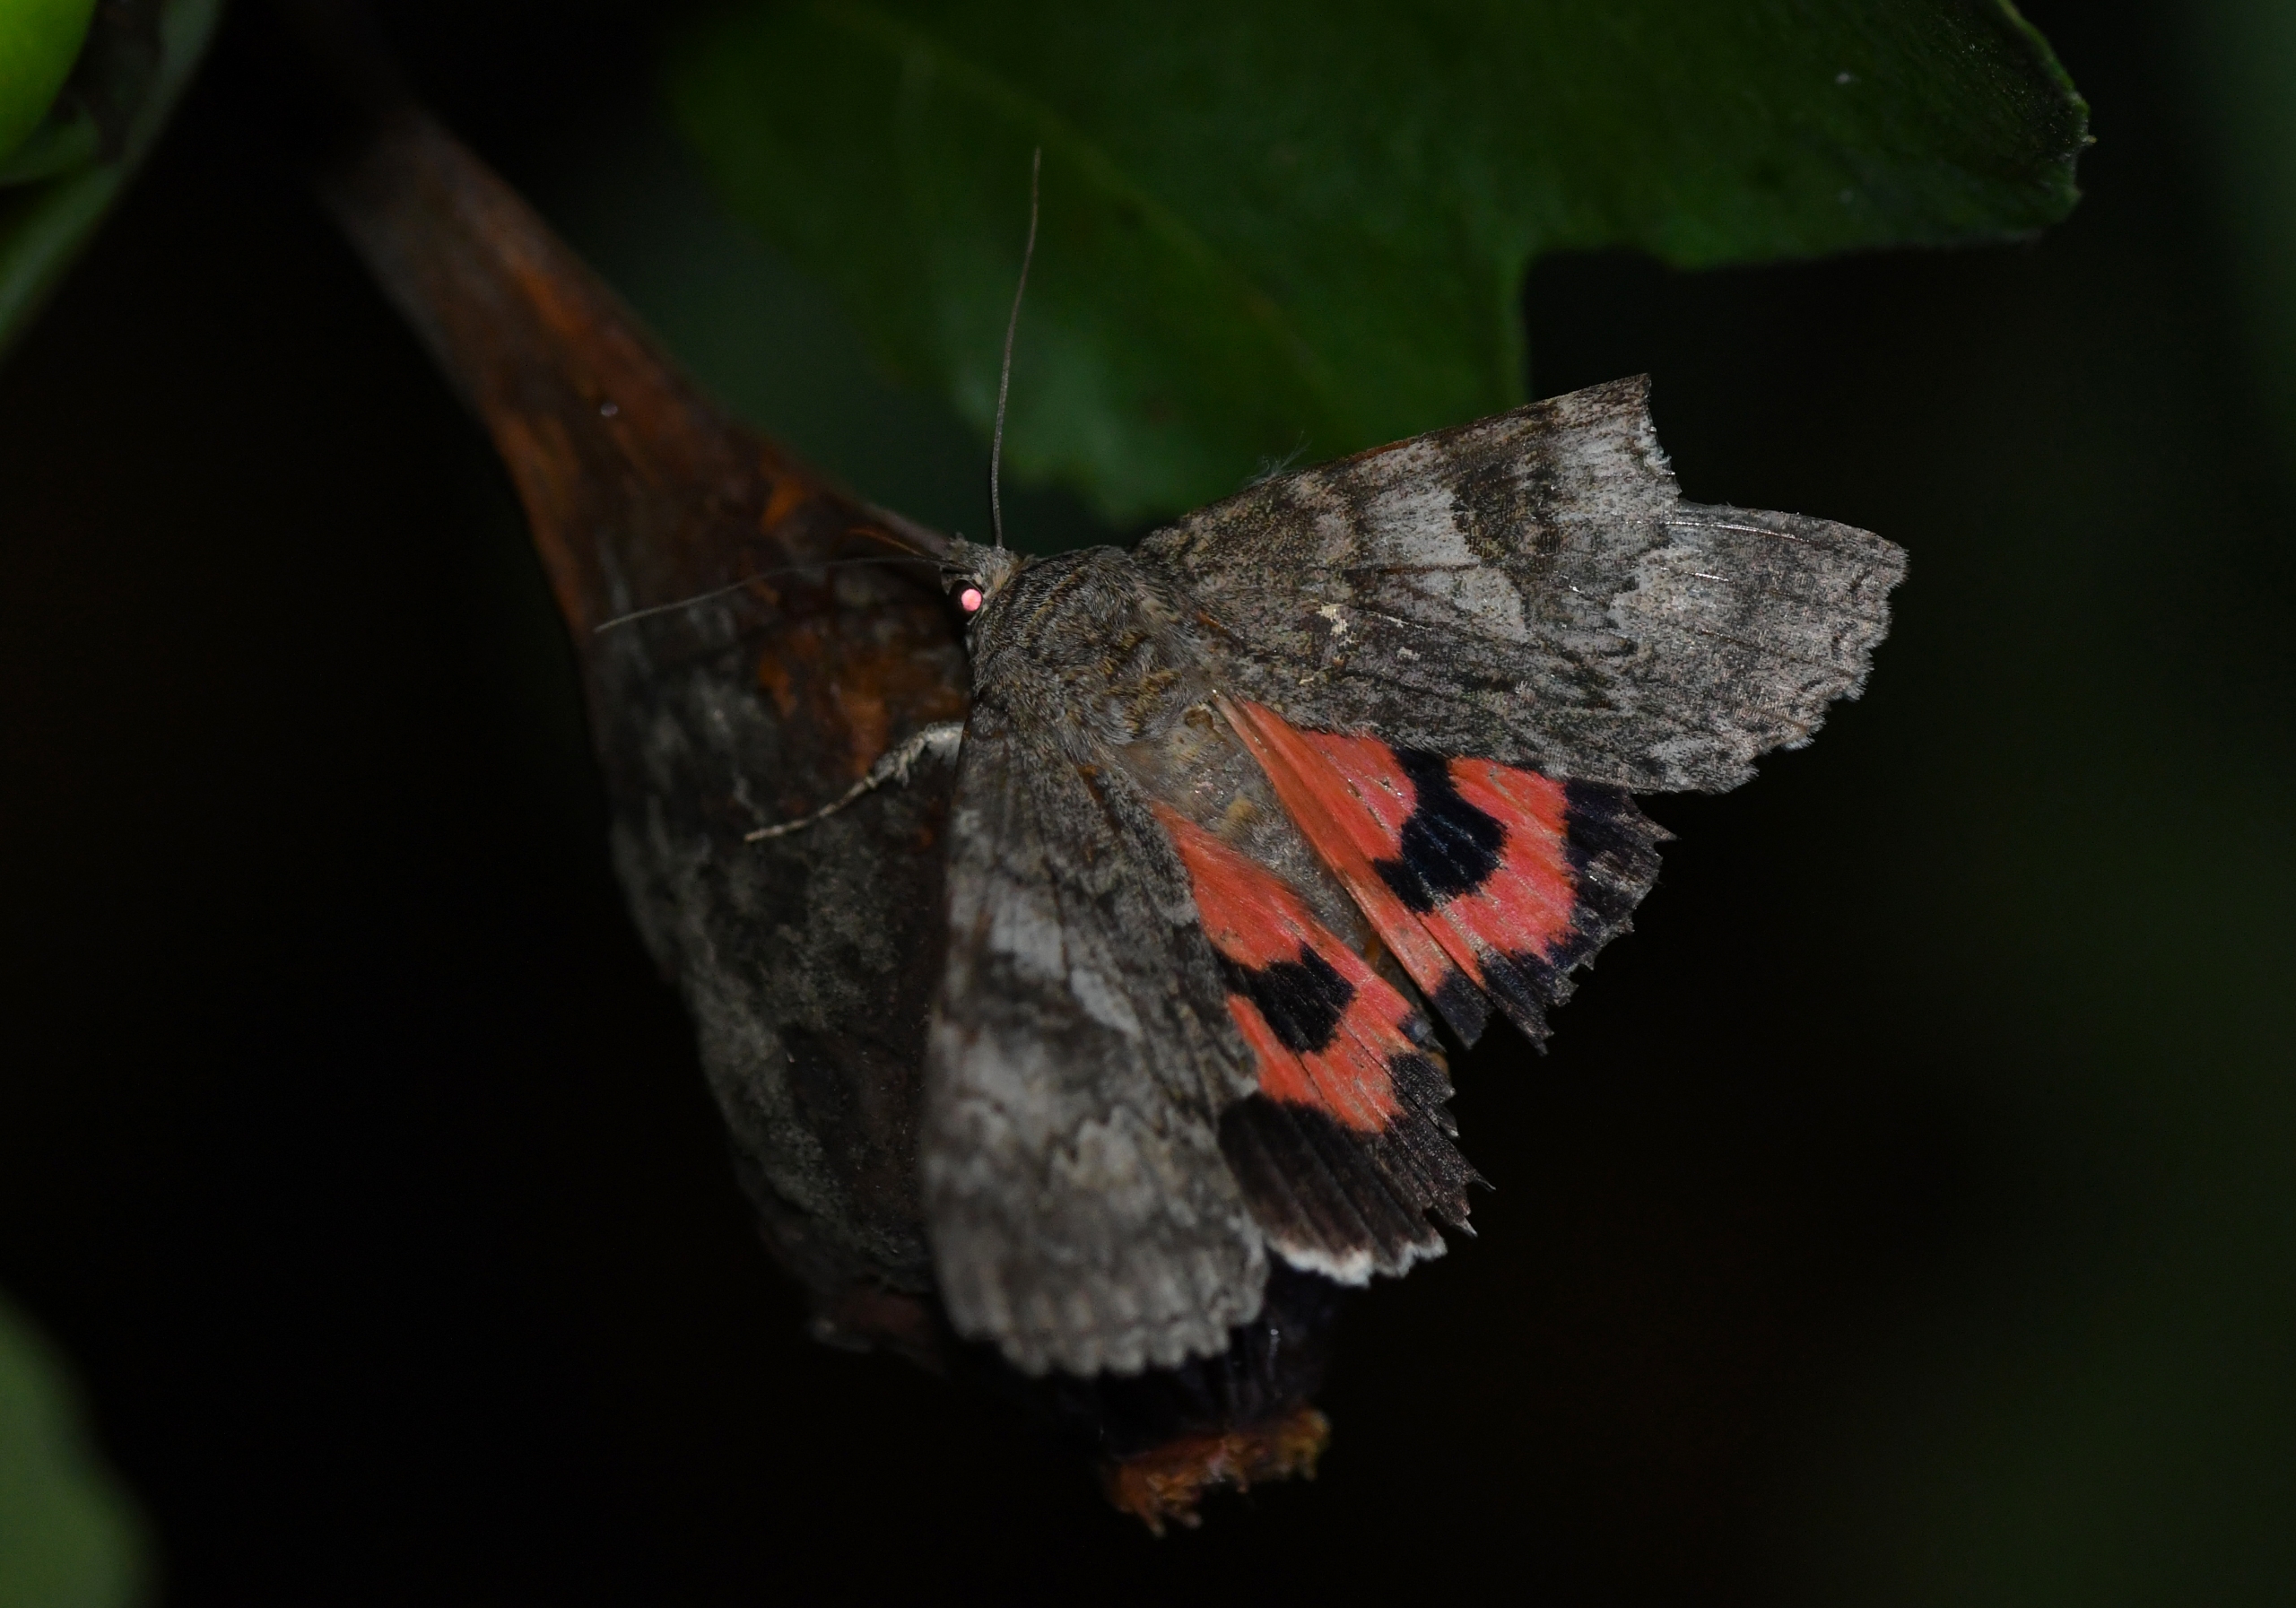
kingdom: Animalia
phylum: Arthropoda
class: Insecta
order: Lepidoptera
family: Erebidae
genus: Catocala
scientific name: Catocala nupta
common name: Rødt ordensbånd
